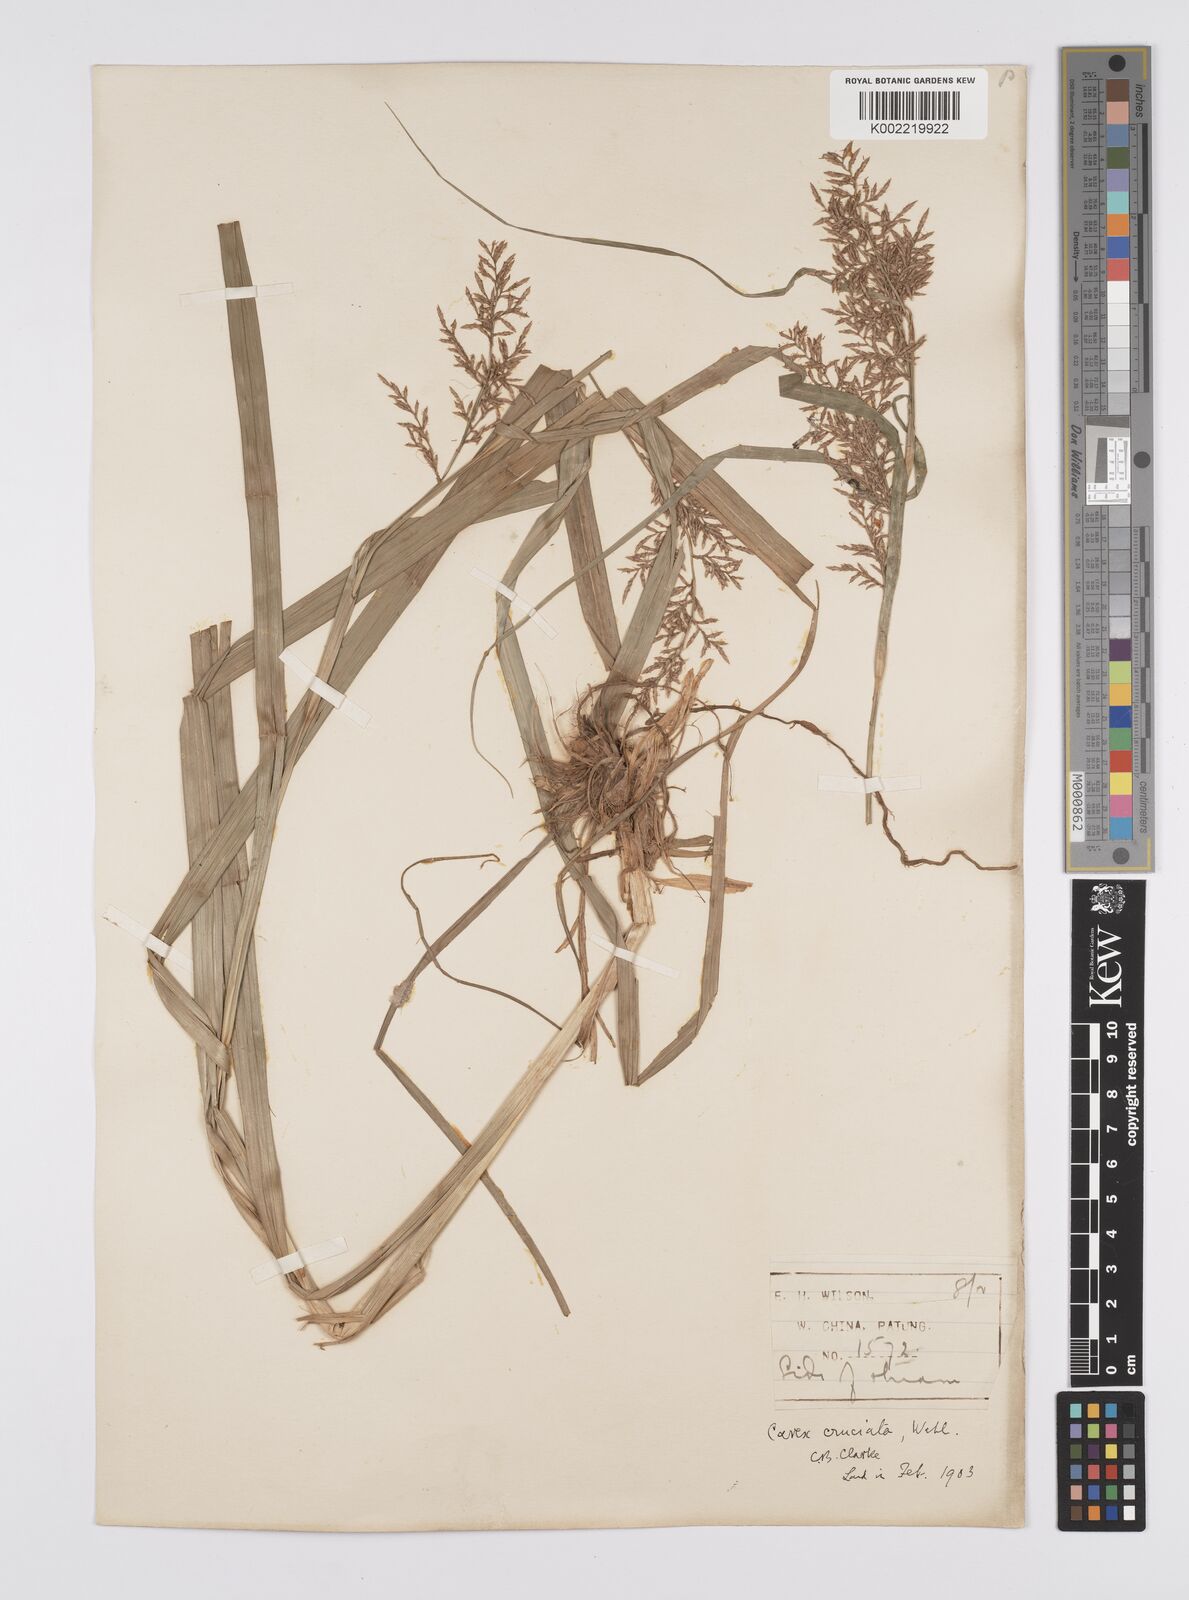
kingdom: Plantae
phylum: Tracheophyta
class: Liliopsida
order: Poales
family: Cyperaceae
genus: Carex
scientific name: Carex cruciata
